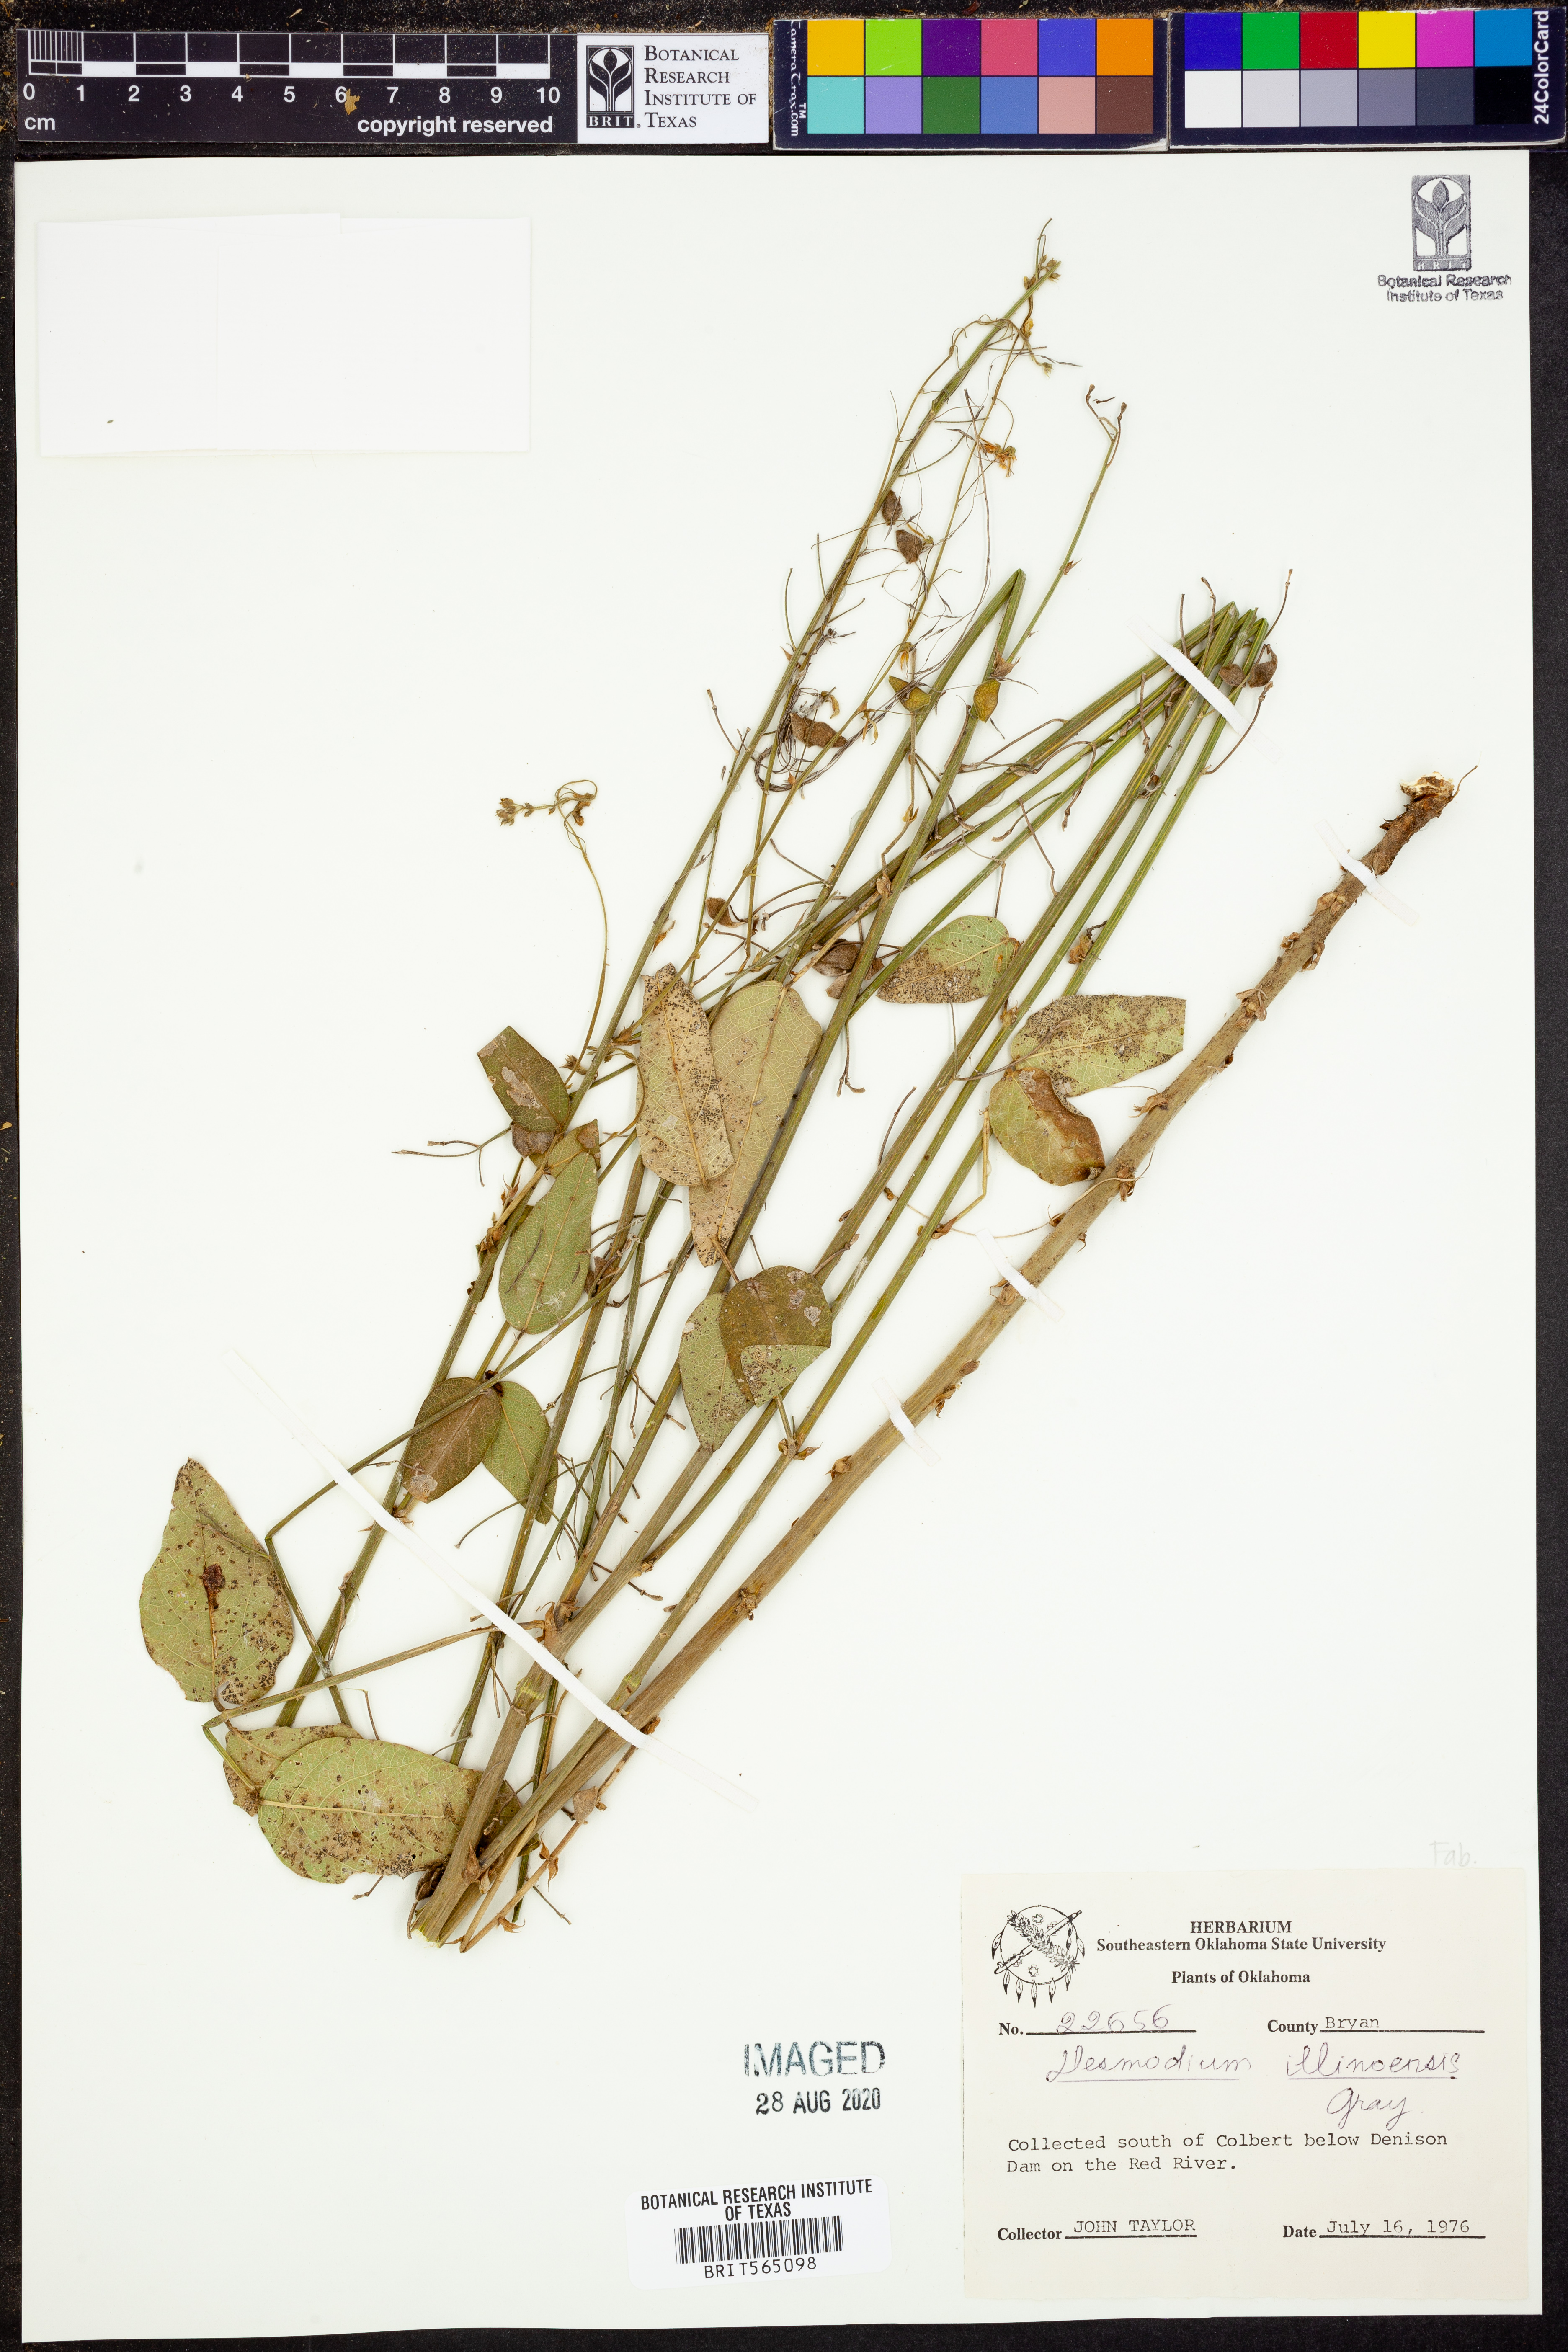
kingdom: Plantae
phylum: Tracheophyta
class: Magnoliopsida
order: Fabales
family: Fabaceae
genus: Desmodium
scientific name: Desmodium illinoense
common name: Illinois tick-clover
